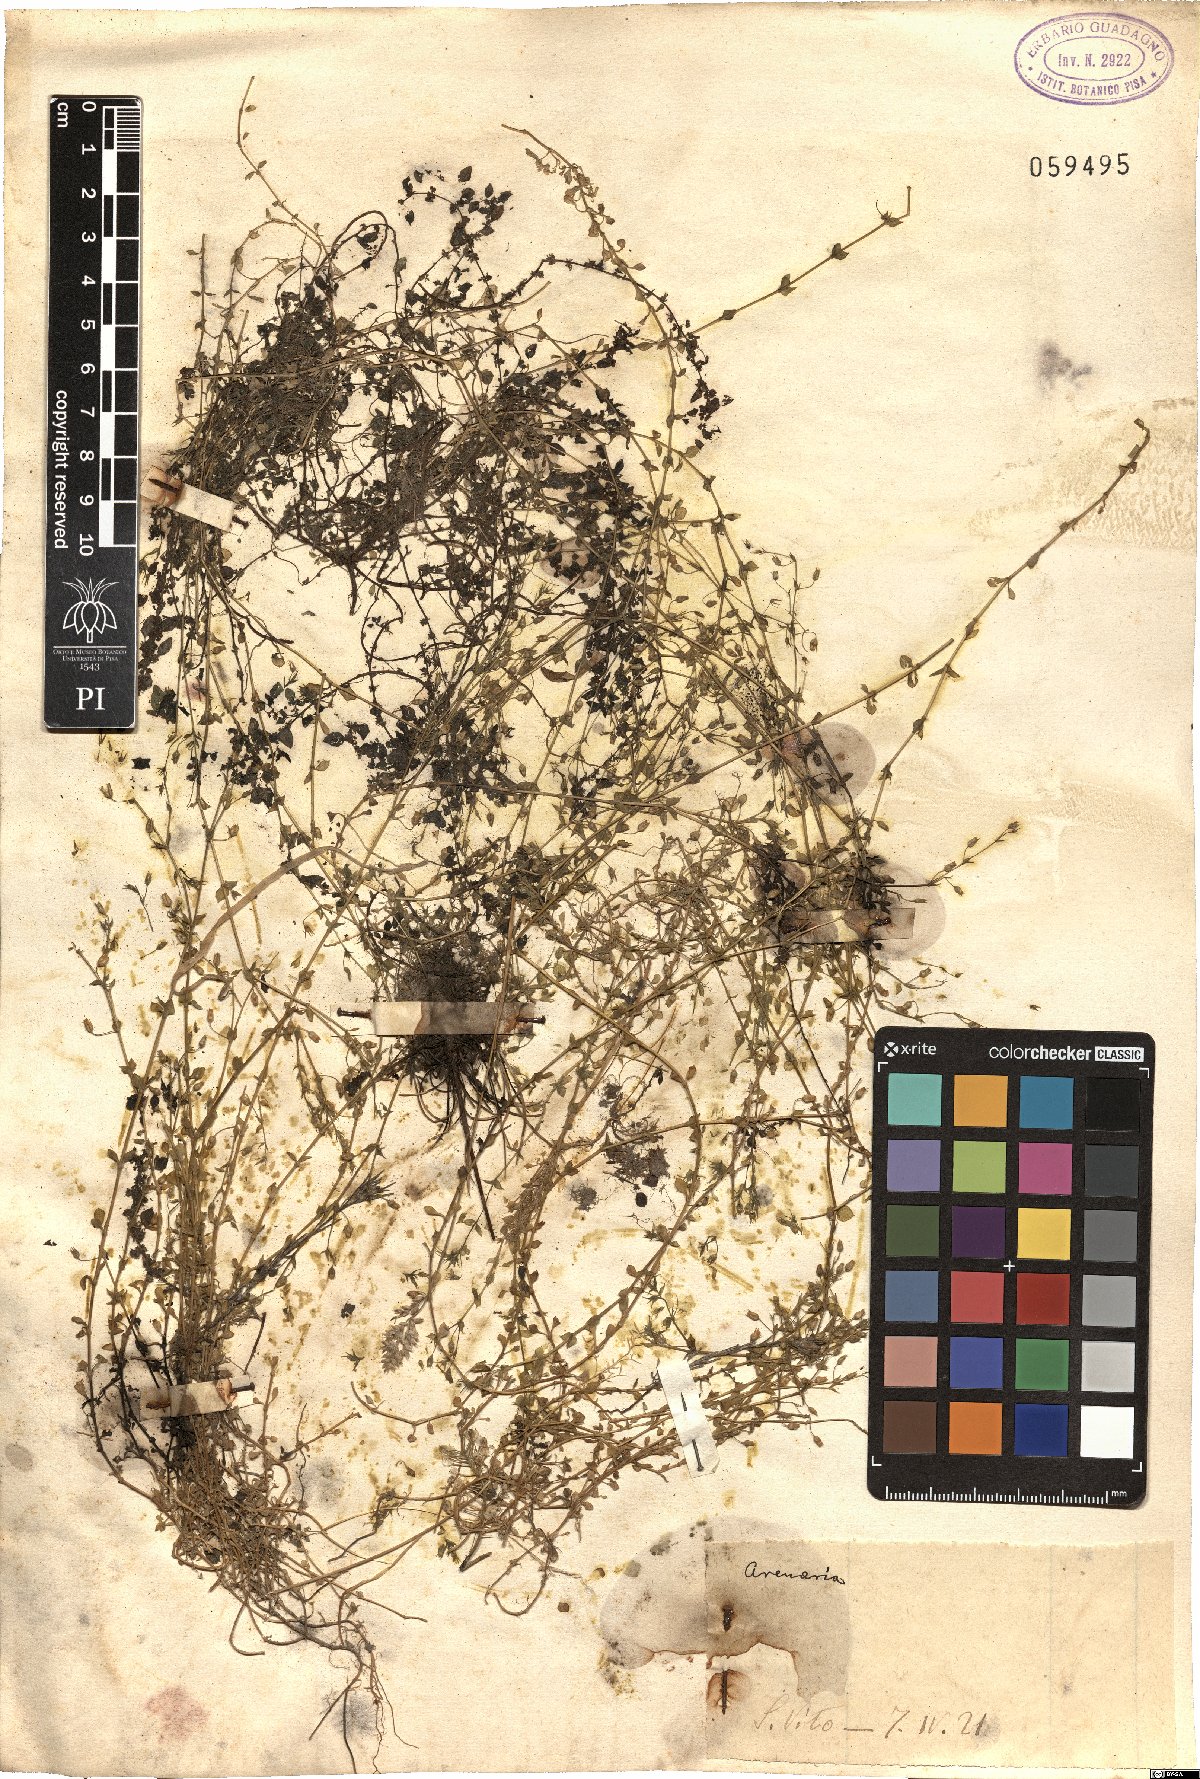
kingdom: Plantae
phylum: Tracheophyta
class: Magnoliopsida
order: Caryophyllales
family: Caryophyllaceae
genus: Arenaria
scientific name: Arenaria
